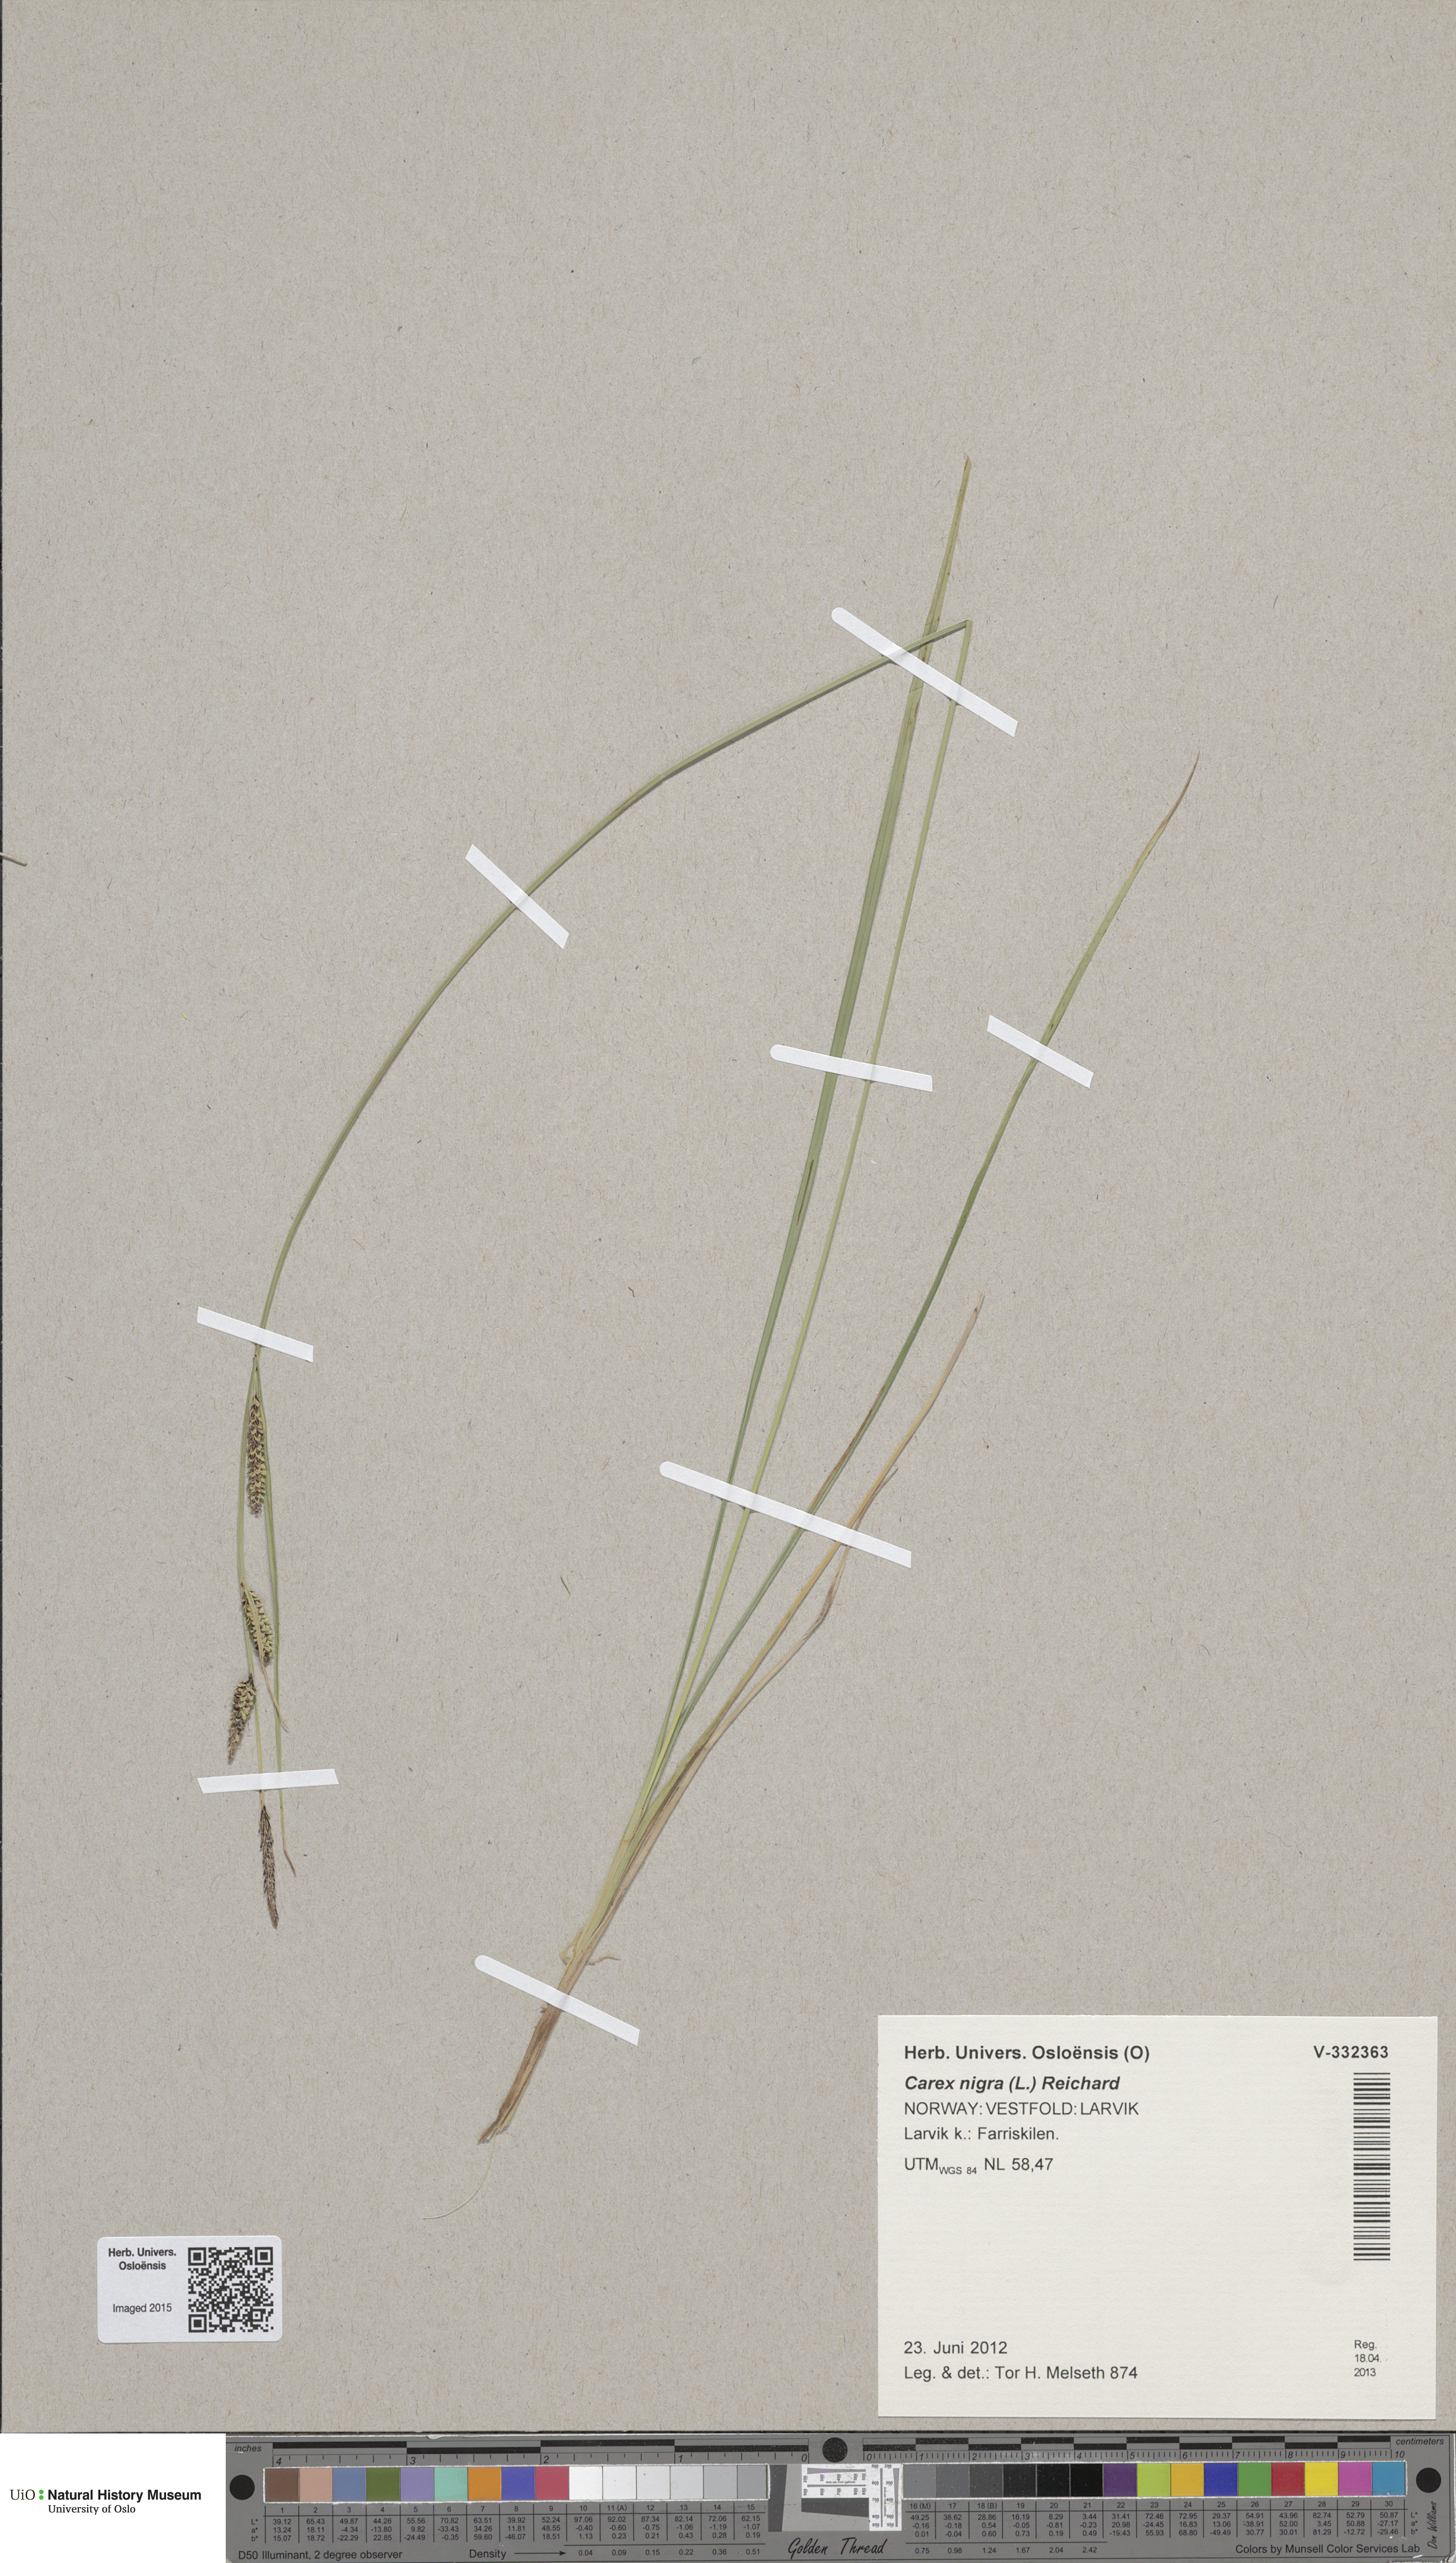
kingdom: Plantae
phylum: Tracheophyta
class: Liliopsida
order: Poales
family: Cyperaceae
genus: Carex
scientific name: Carex nigra
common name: Common sedge
